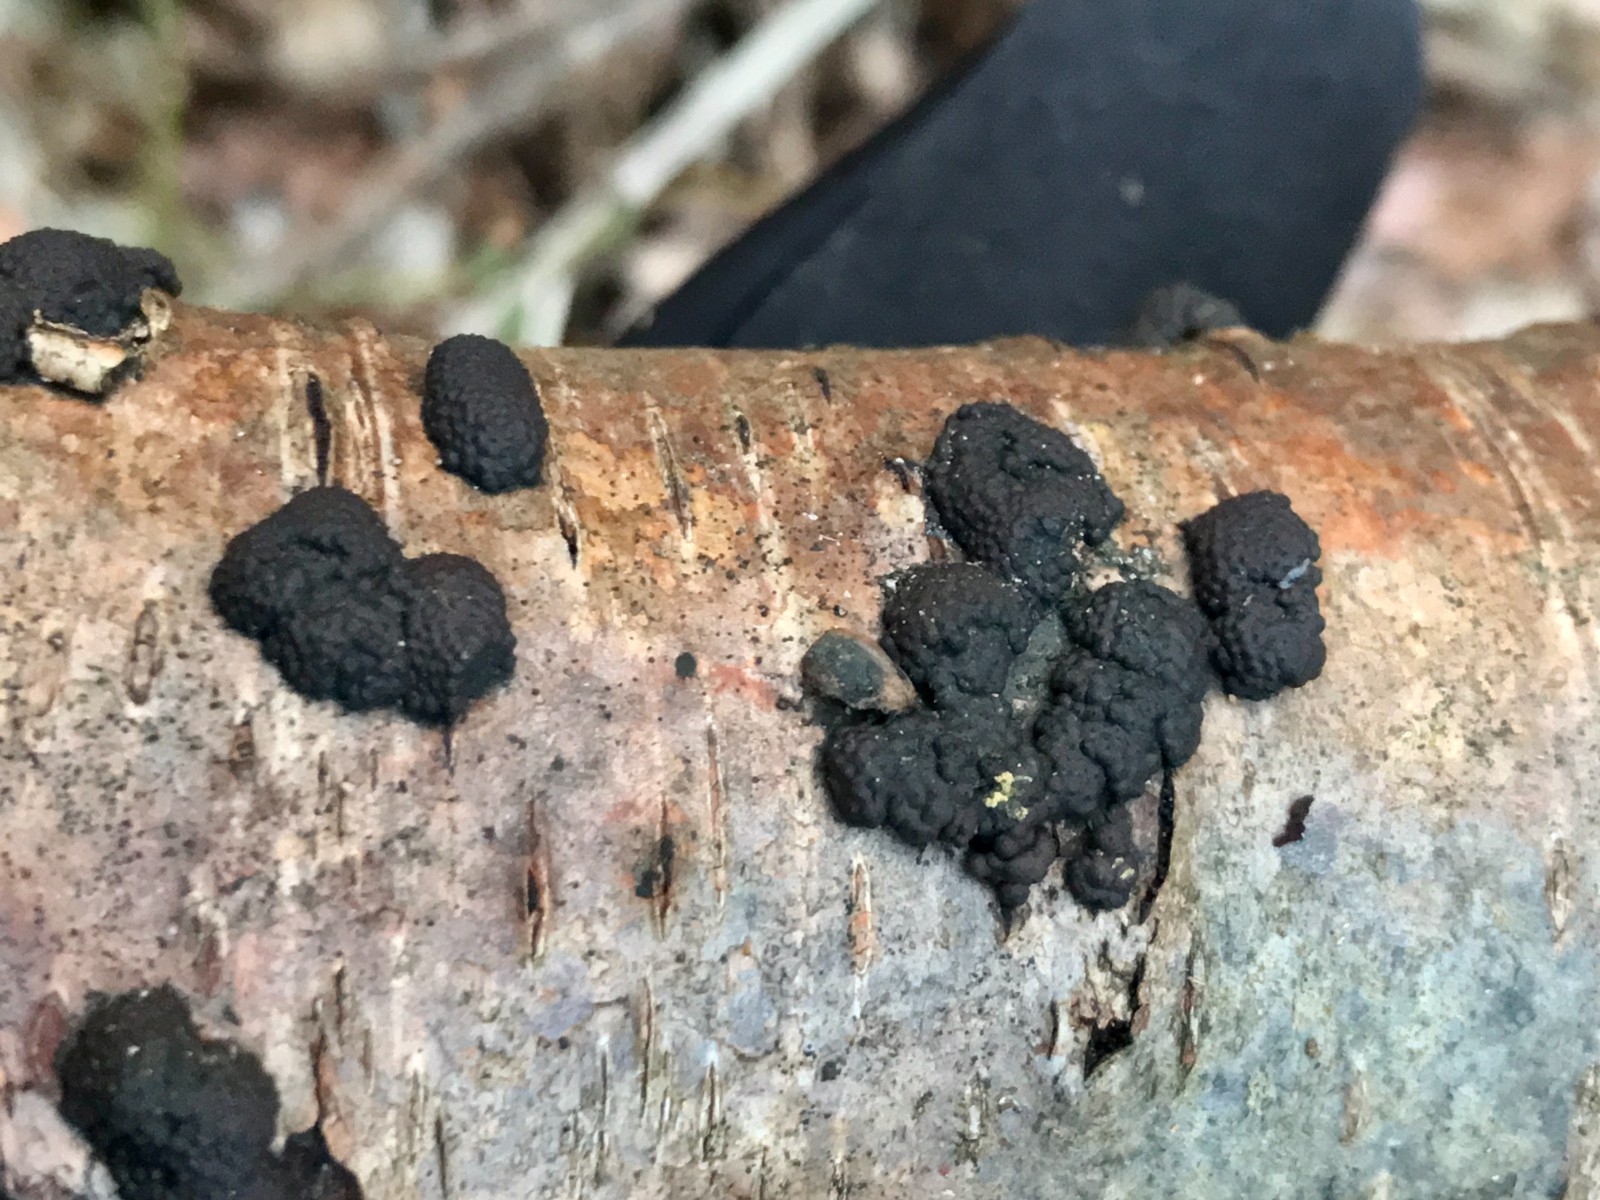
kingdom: Fungi
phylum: Ascomycota
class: Sordariomycetes
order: Xylariales
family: Hypoxylaceae
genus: Jackrogersella
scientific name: Jackrogersella multiformis
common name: foranderlig kulbær
